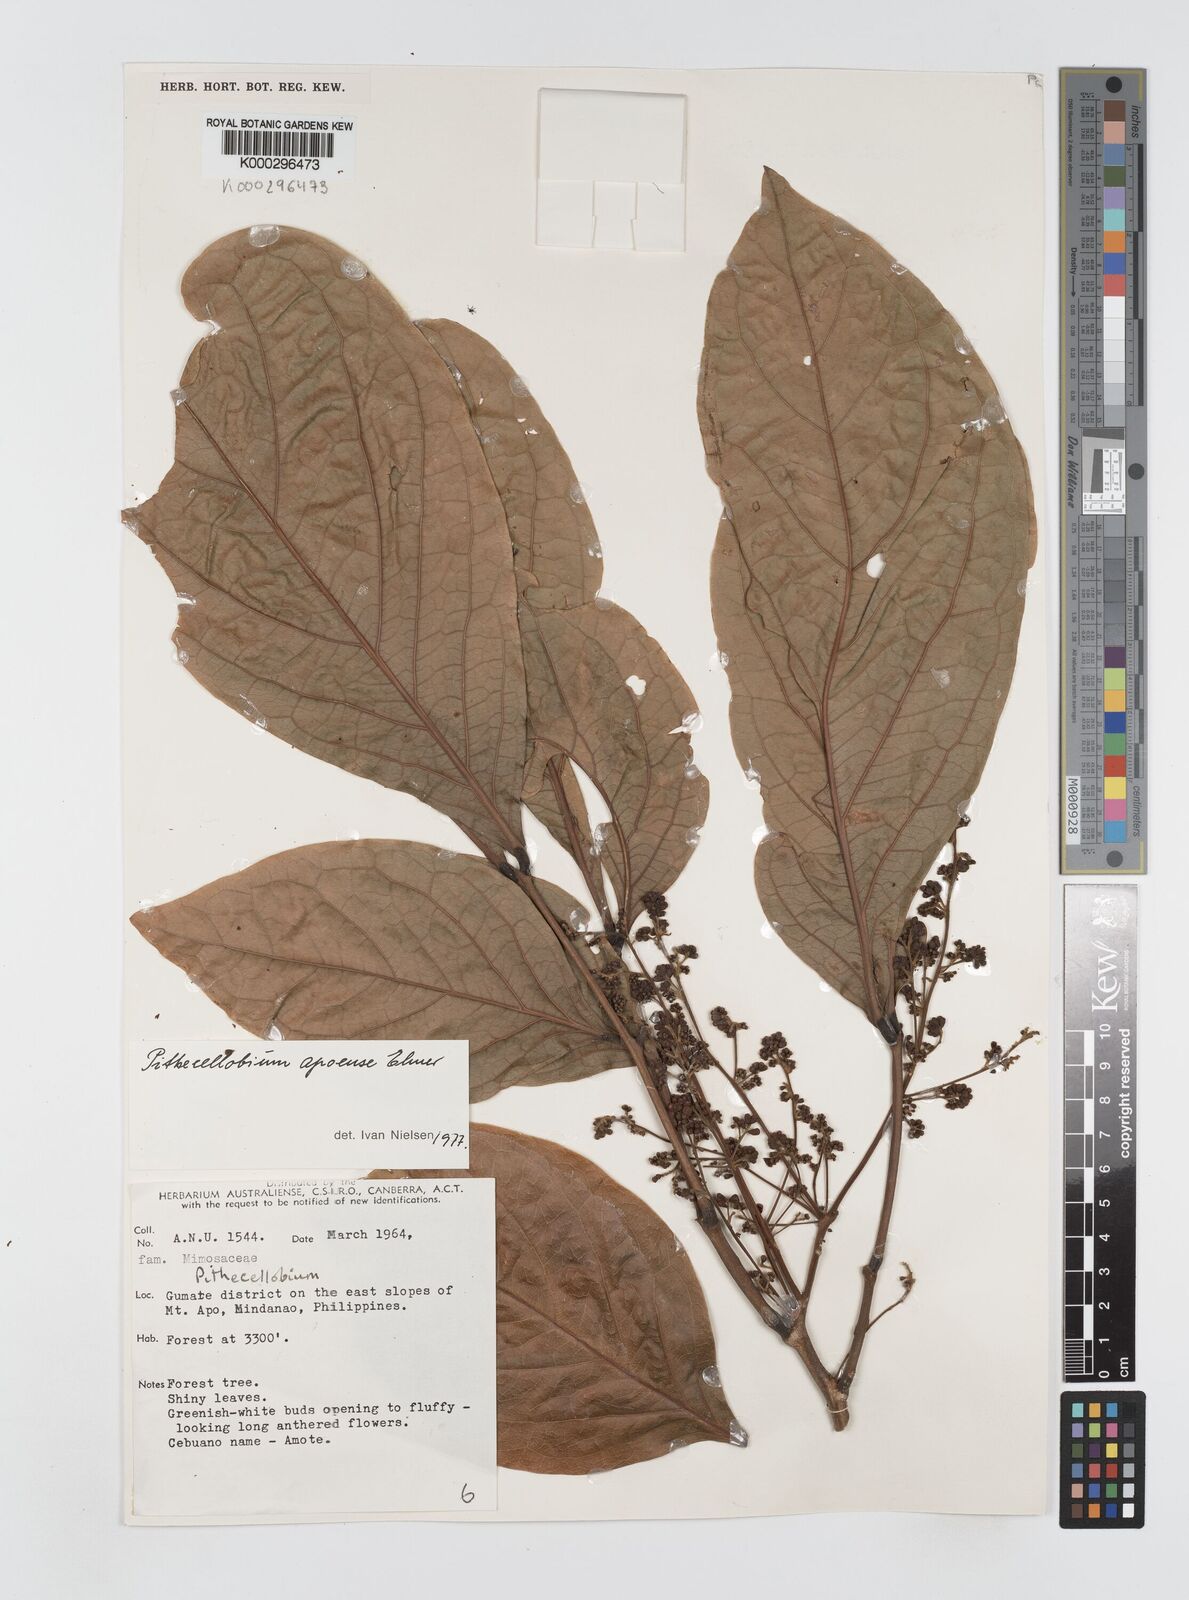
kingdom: Plantae
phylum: Tracheophyta
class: Magnoliopsida
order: Fabales
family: Fabaceae
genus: Archidendron
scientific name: Archidendron apoense
